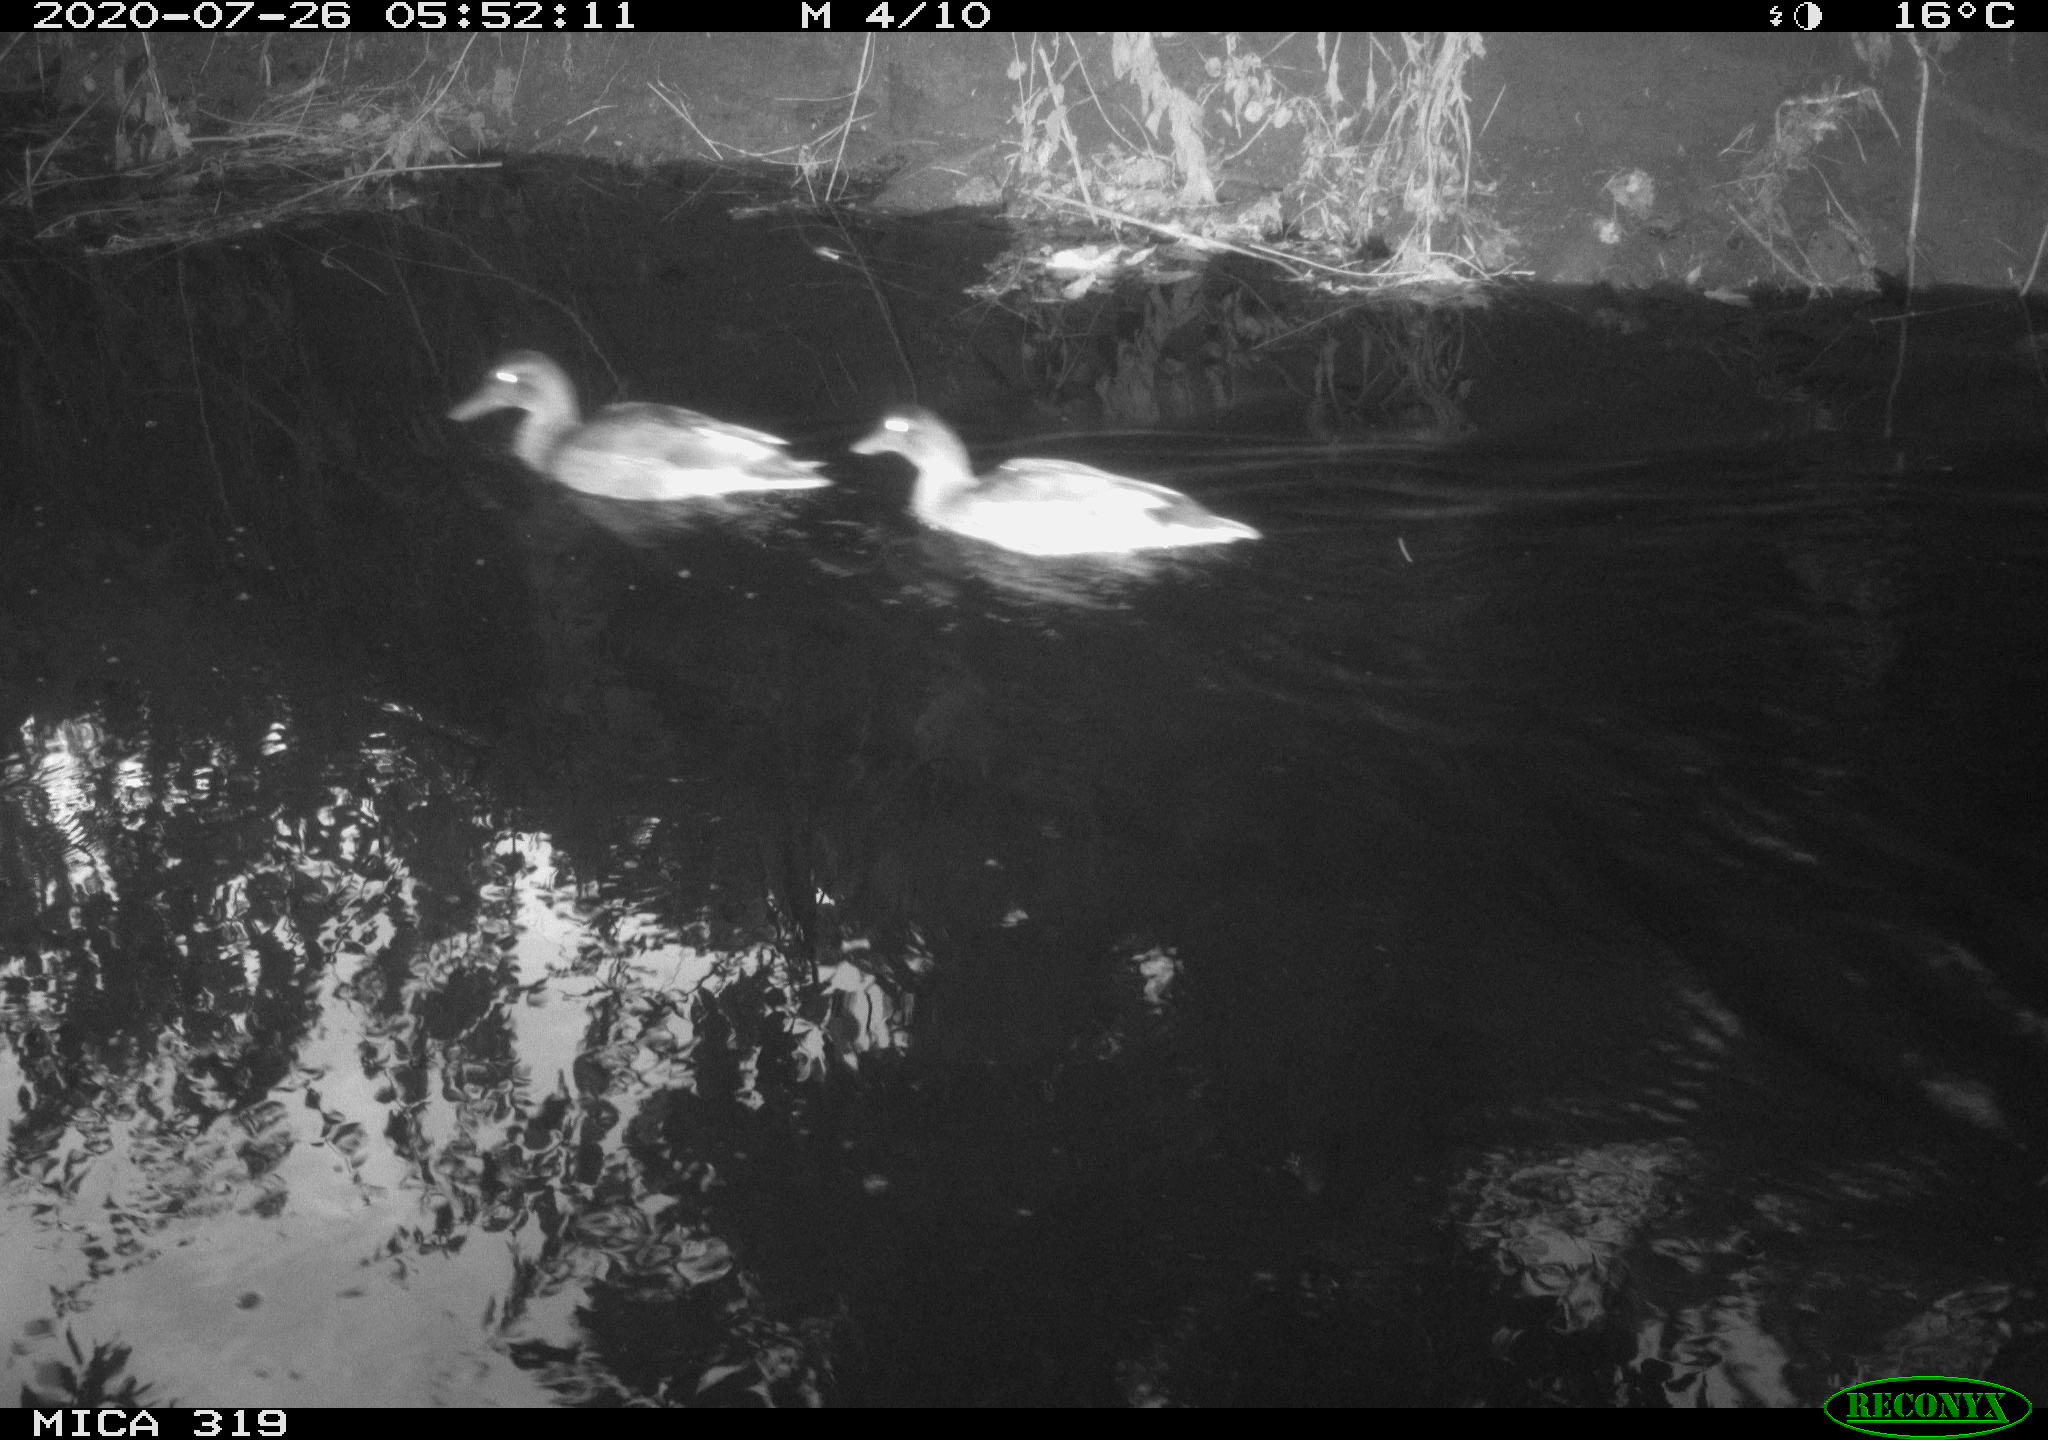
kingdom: Animalia
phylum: Chordata
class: Aves
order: Anseriformes
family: Anatidae
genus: Anas
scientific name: Anas platyrhynchos
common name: Mallard
